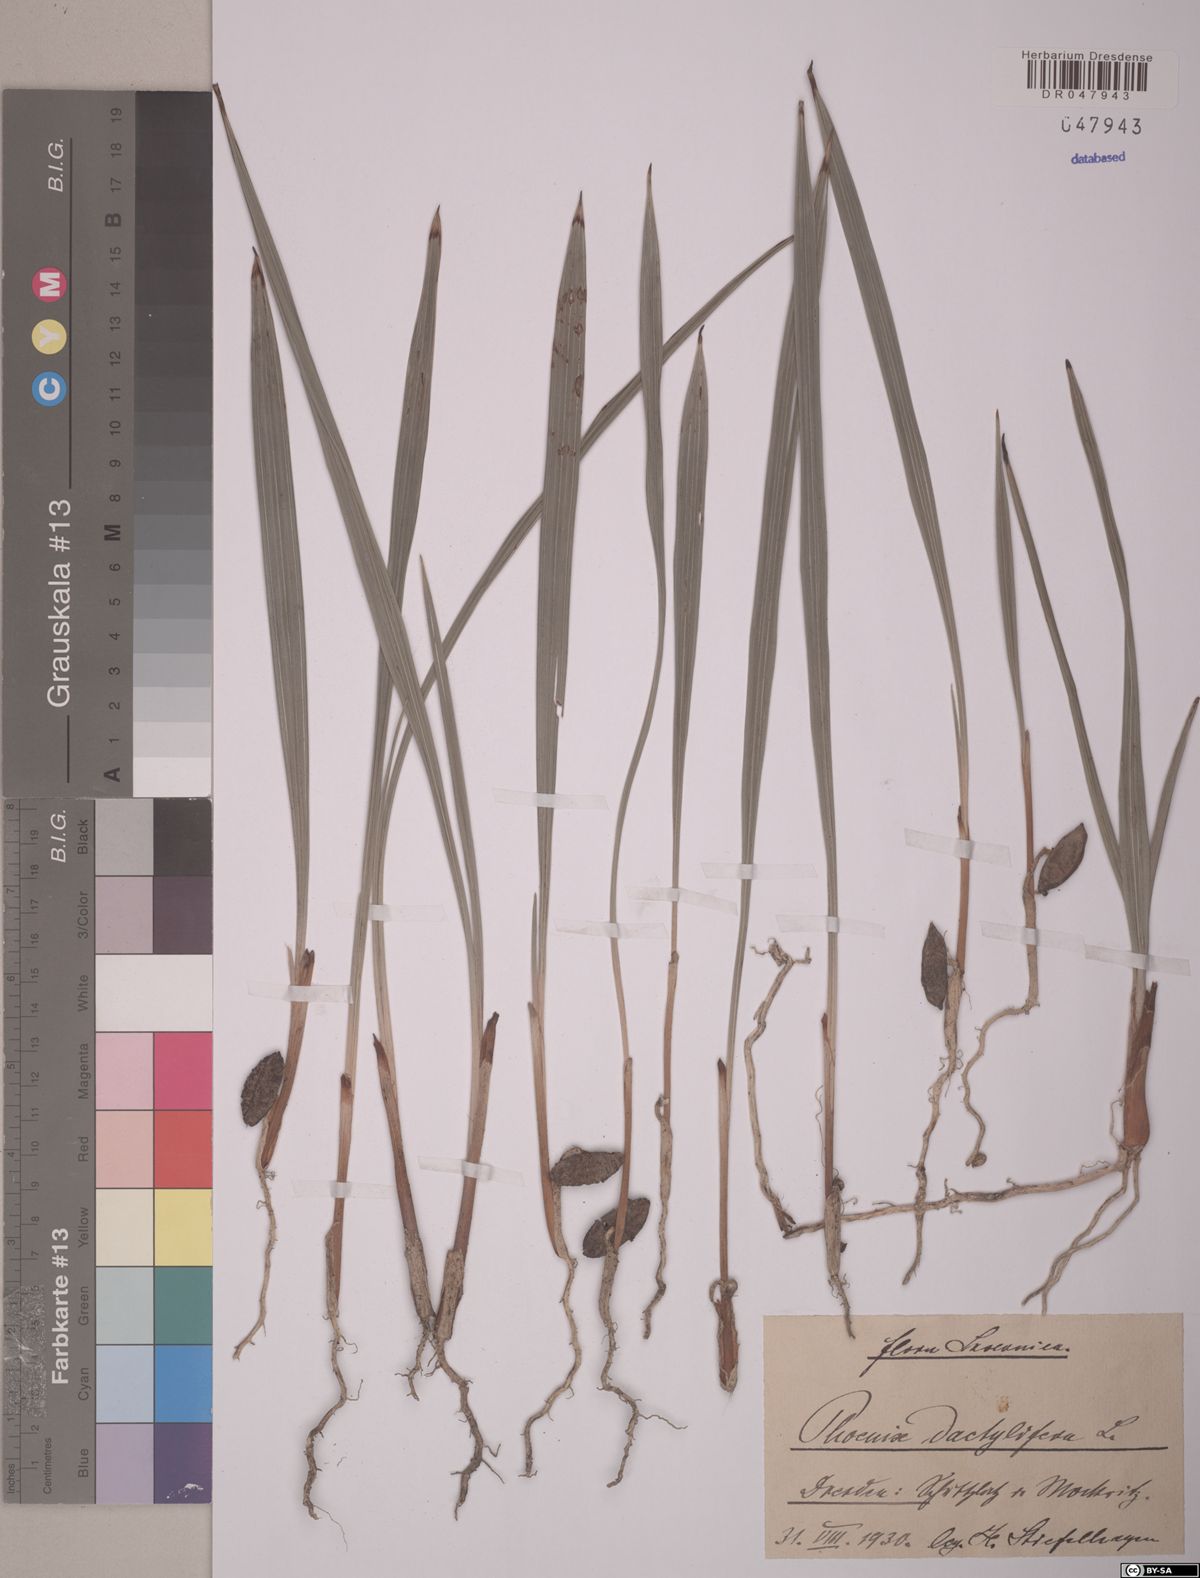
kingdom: Plantae
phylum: Tracheophyta
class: Liliopsida
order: Arecales
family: Arecaceae
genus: Phoenix
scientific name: Phoenix dactylifera
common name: Date palm
